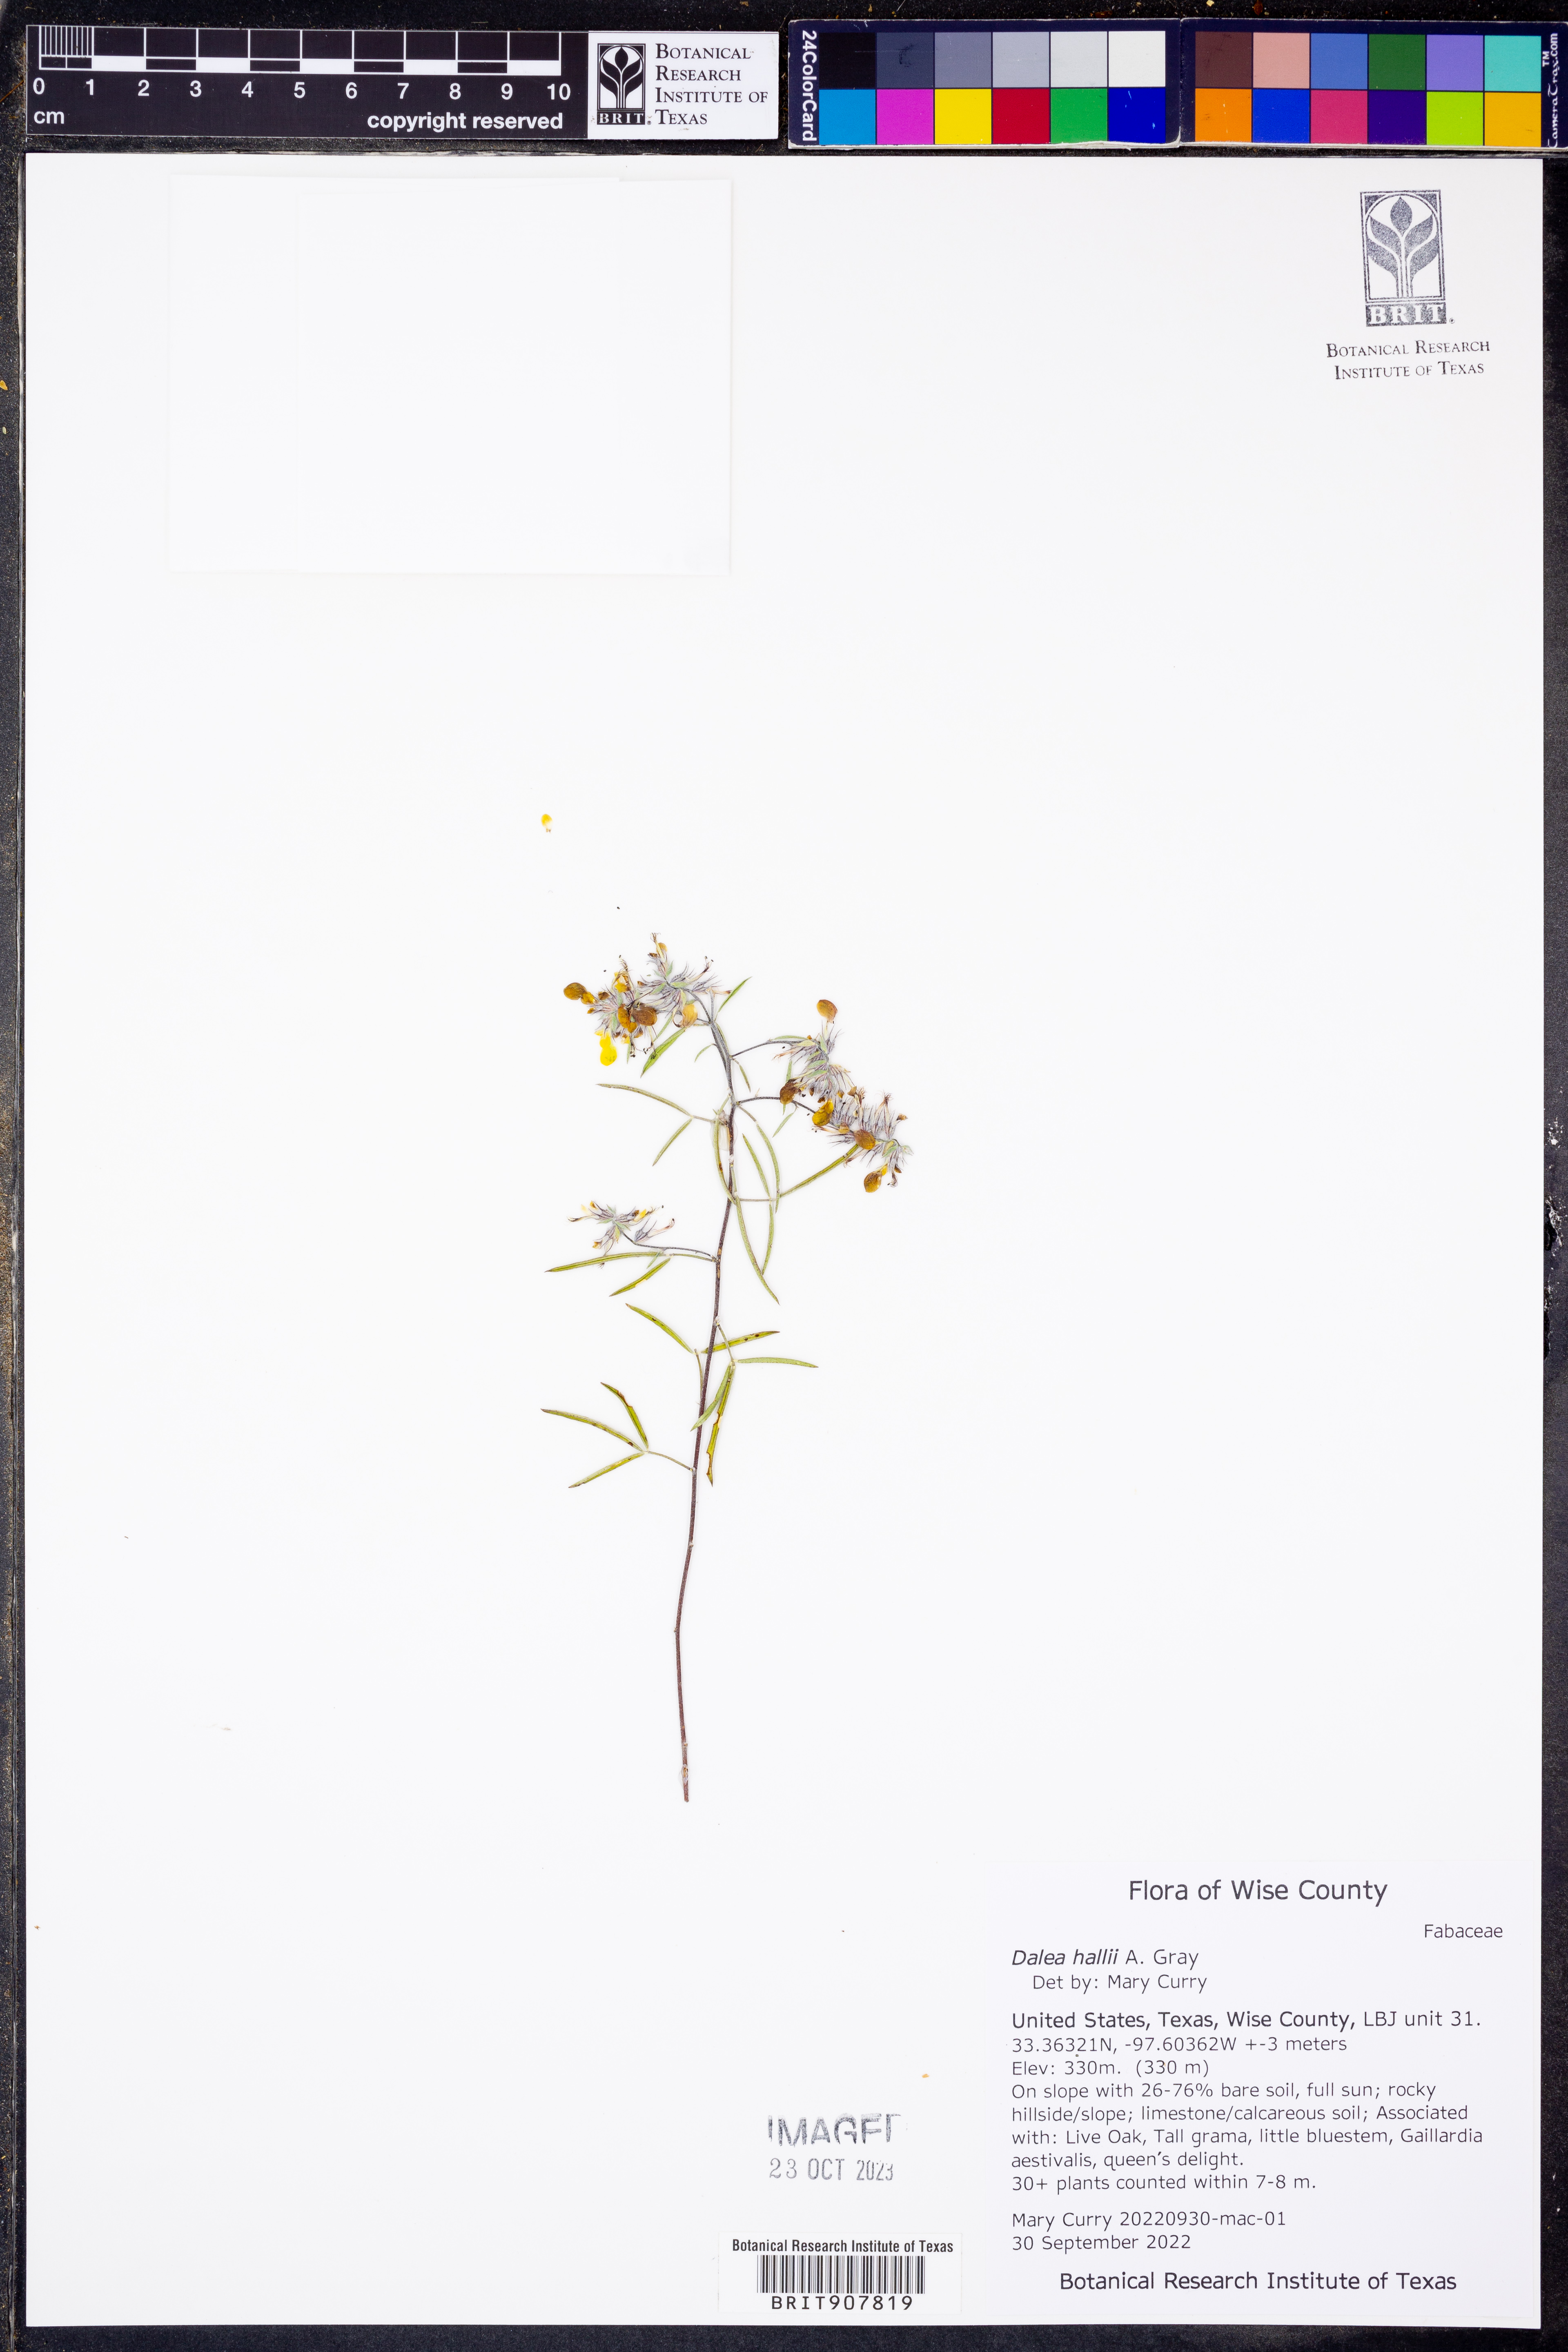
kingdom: Plantae
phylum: Tracheophyta
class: Magnoliopsida
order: Fabales
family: Fabaceae
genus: Dalea
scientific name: Dalea hallii
